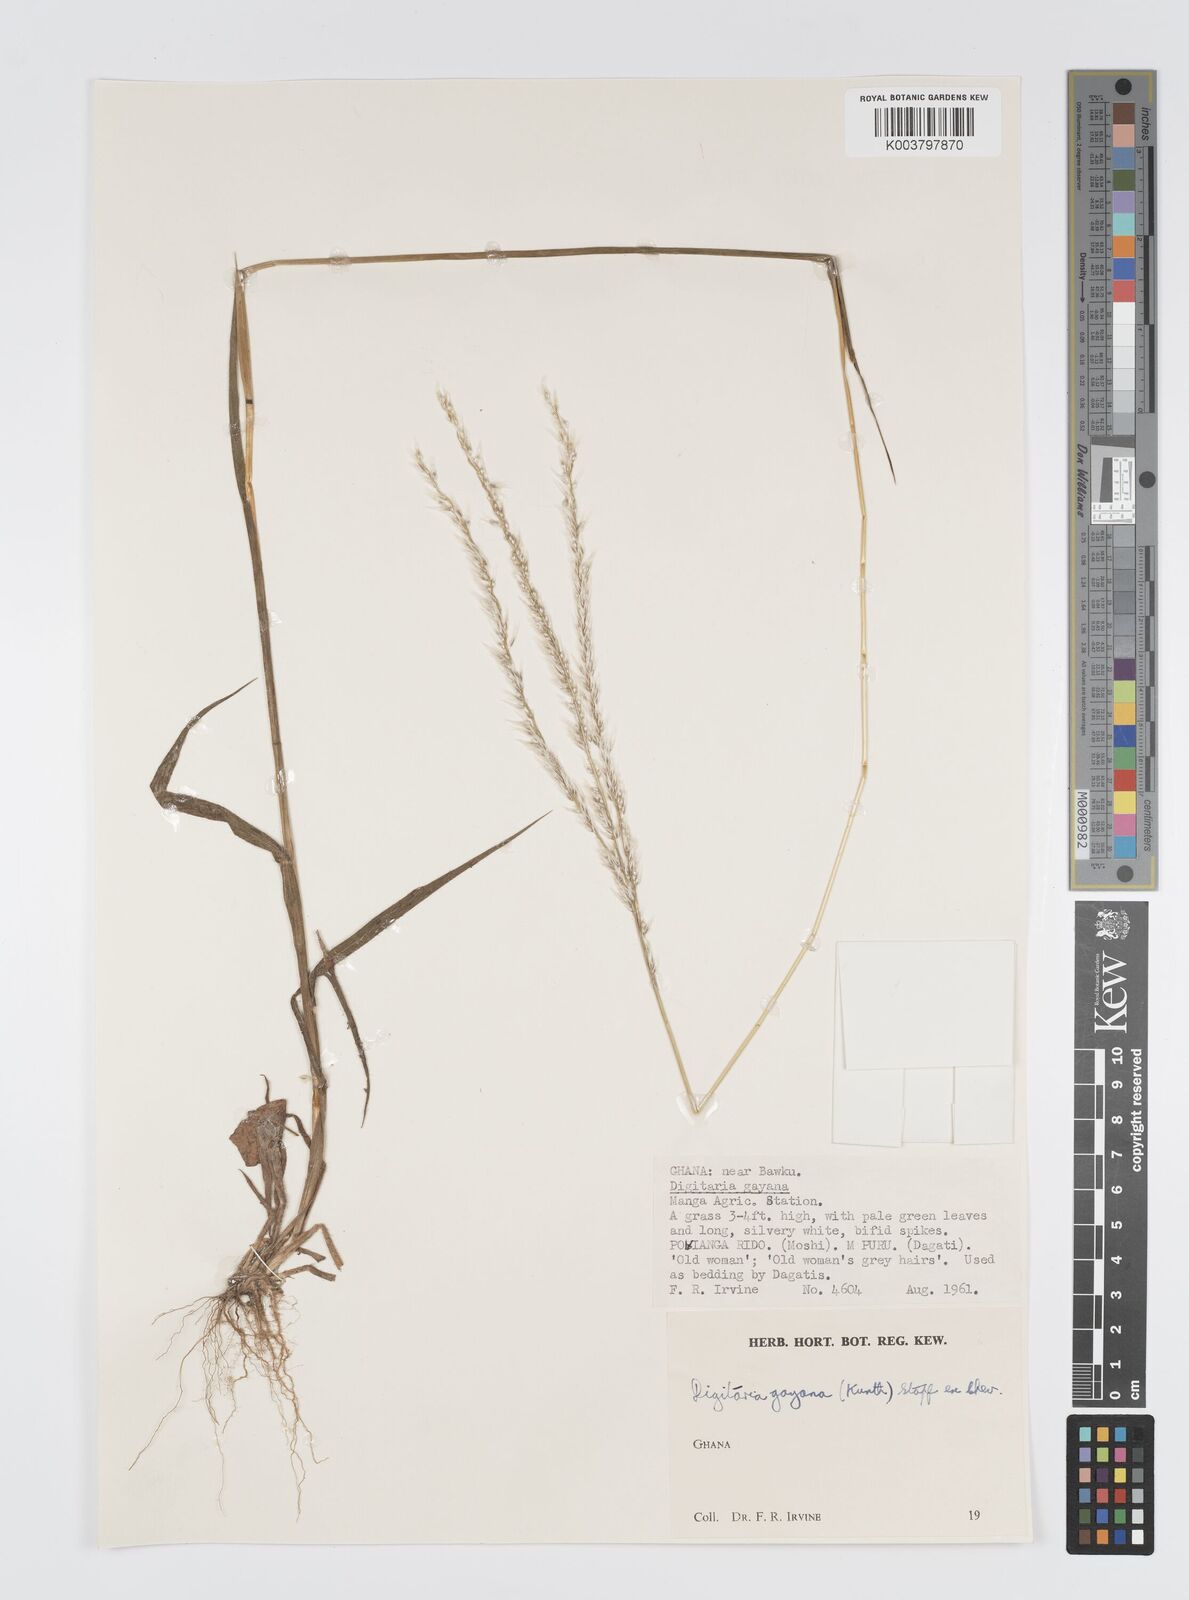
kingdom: Plantae
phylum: Tracheophyta
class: Liliopsida
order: Poales
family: Poaceae
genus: Digitaria
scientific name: Digitaria gayana
